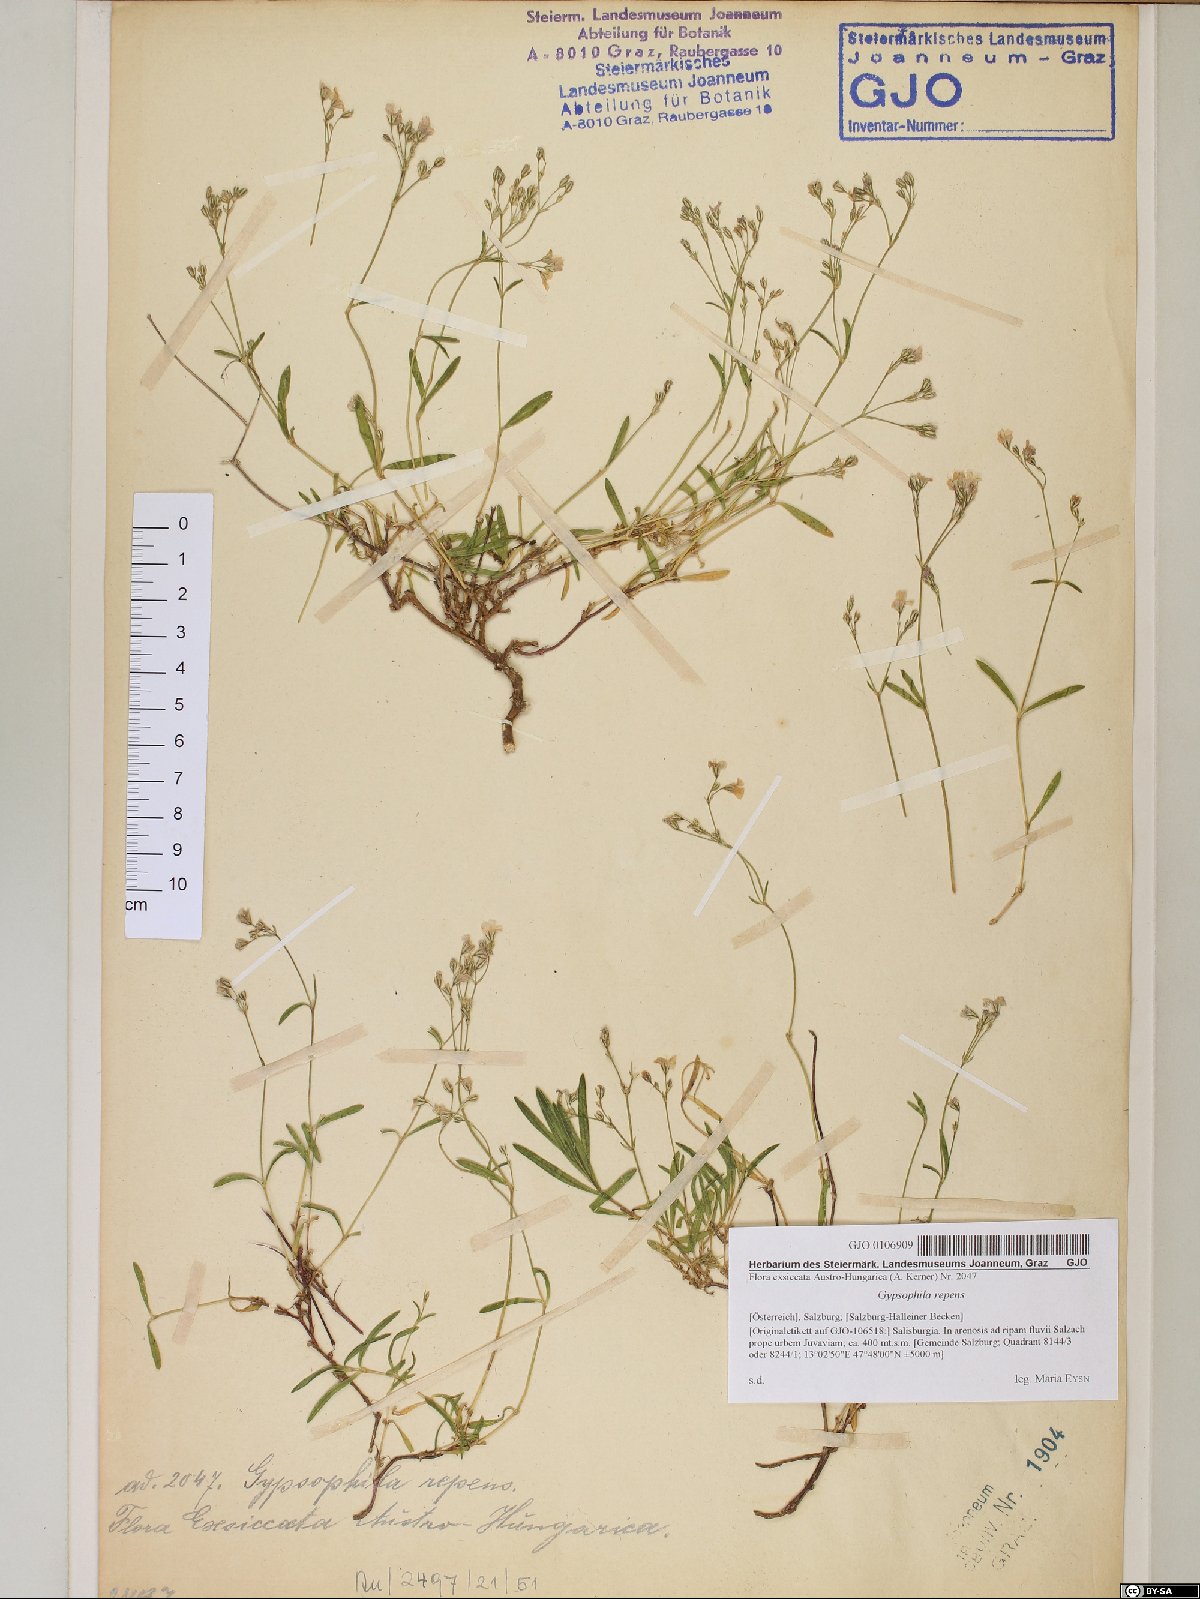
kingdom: Plantae
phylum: Tracheophyta
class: Magnoliopsida
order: Caryophyllales
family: Caryophyllaceae
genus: Gypsophila
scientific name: Gypsophila repens
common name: Creeping baby's-breath
